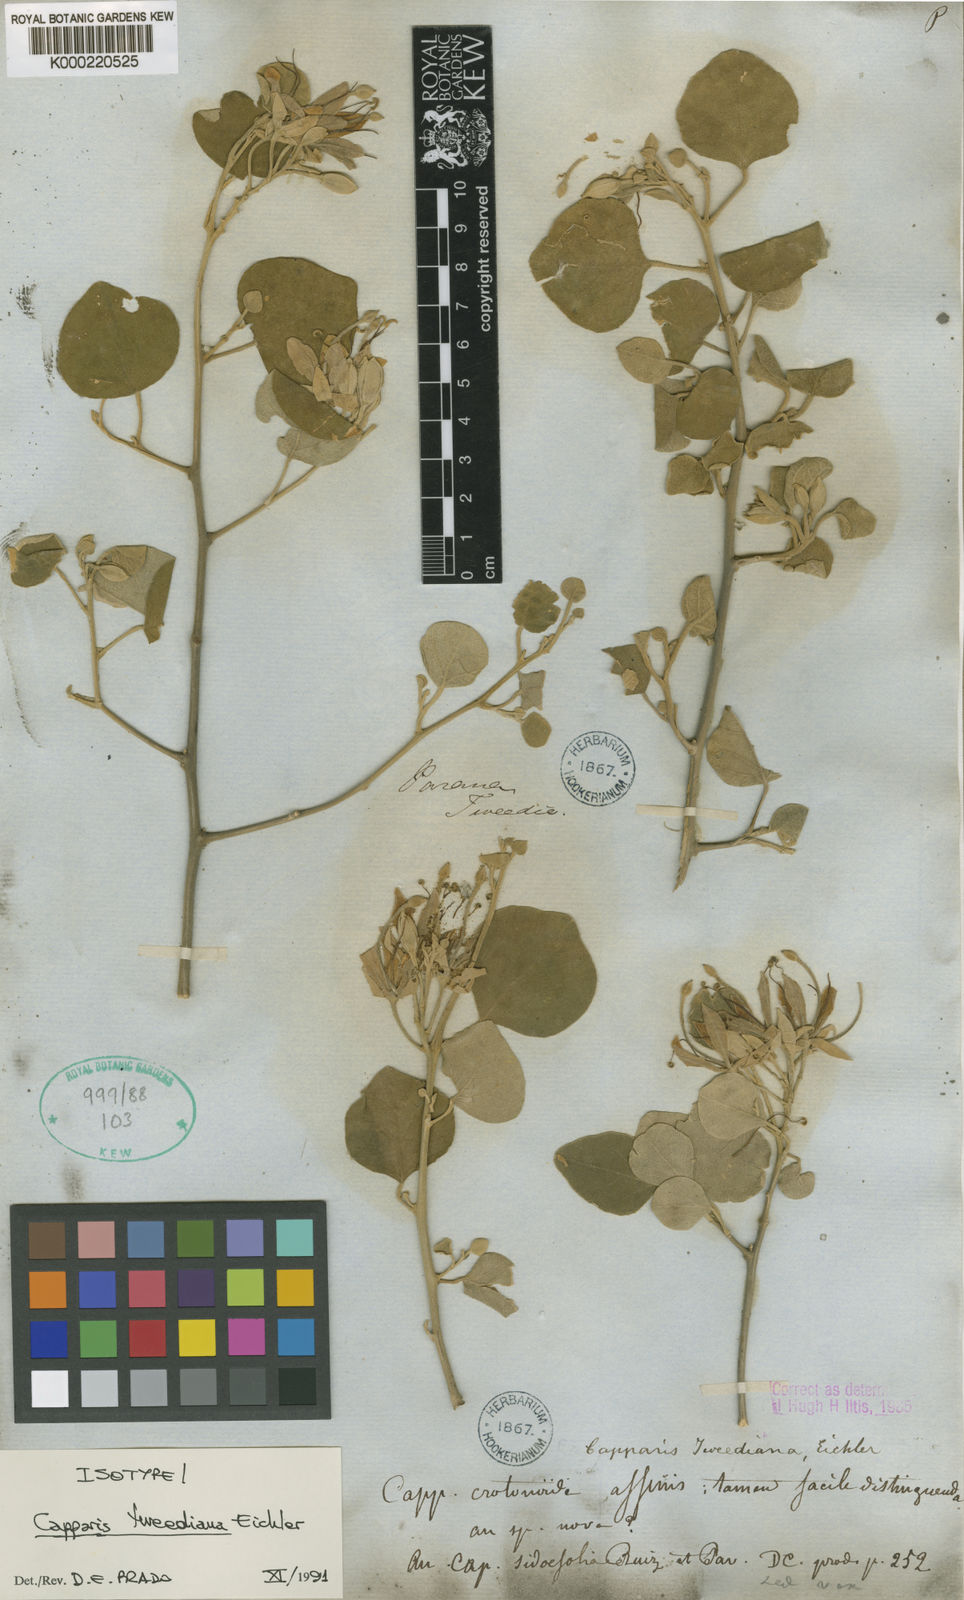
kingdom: Plantae
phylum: Tracheophyta
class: Magnoliopsida
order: Brassicales
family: Capparaceae
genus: Capparis
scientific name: Capparis
